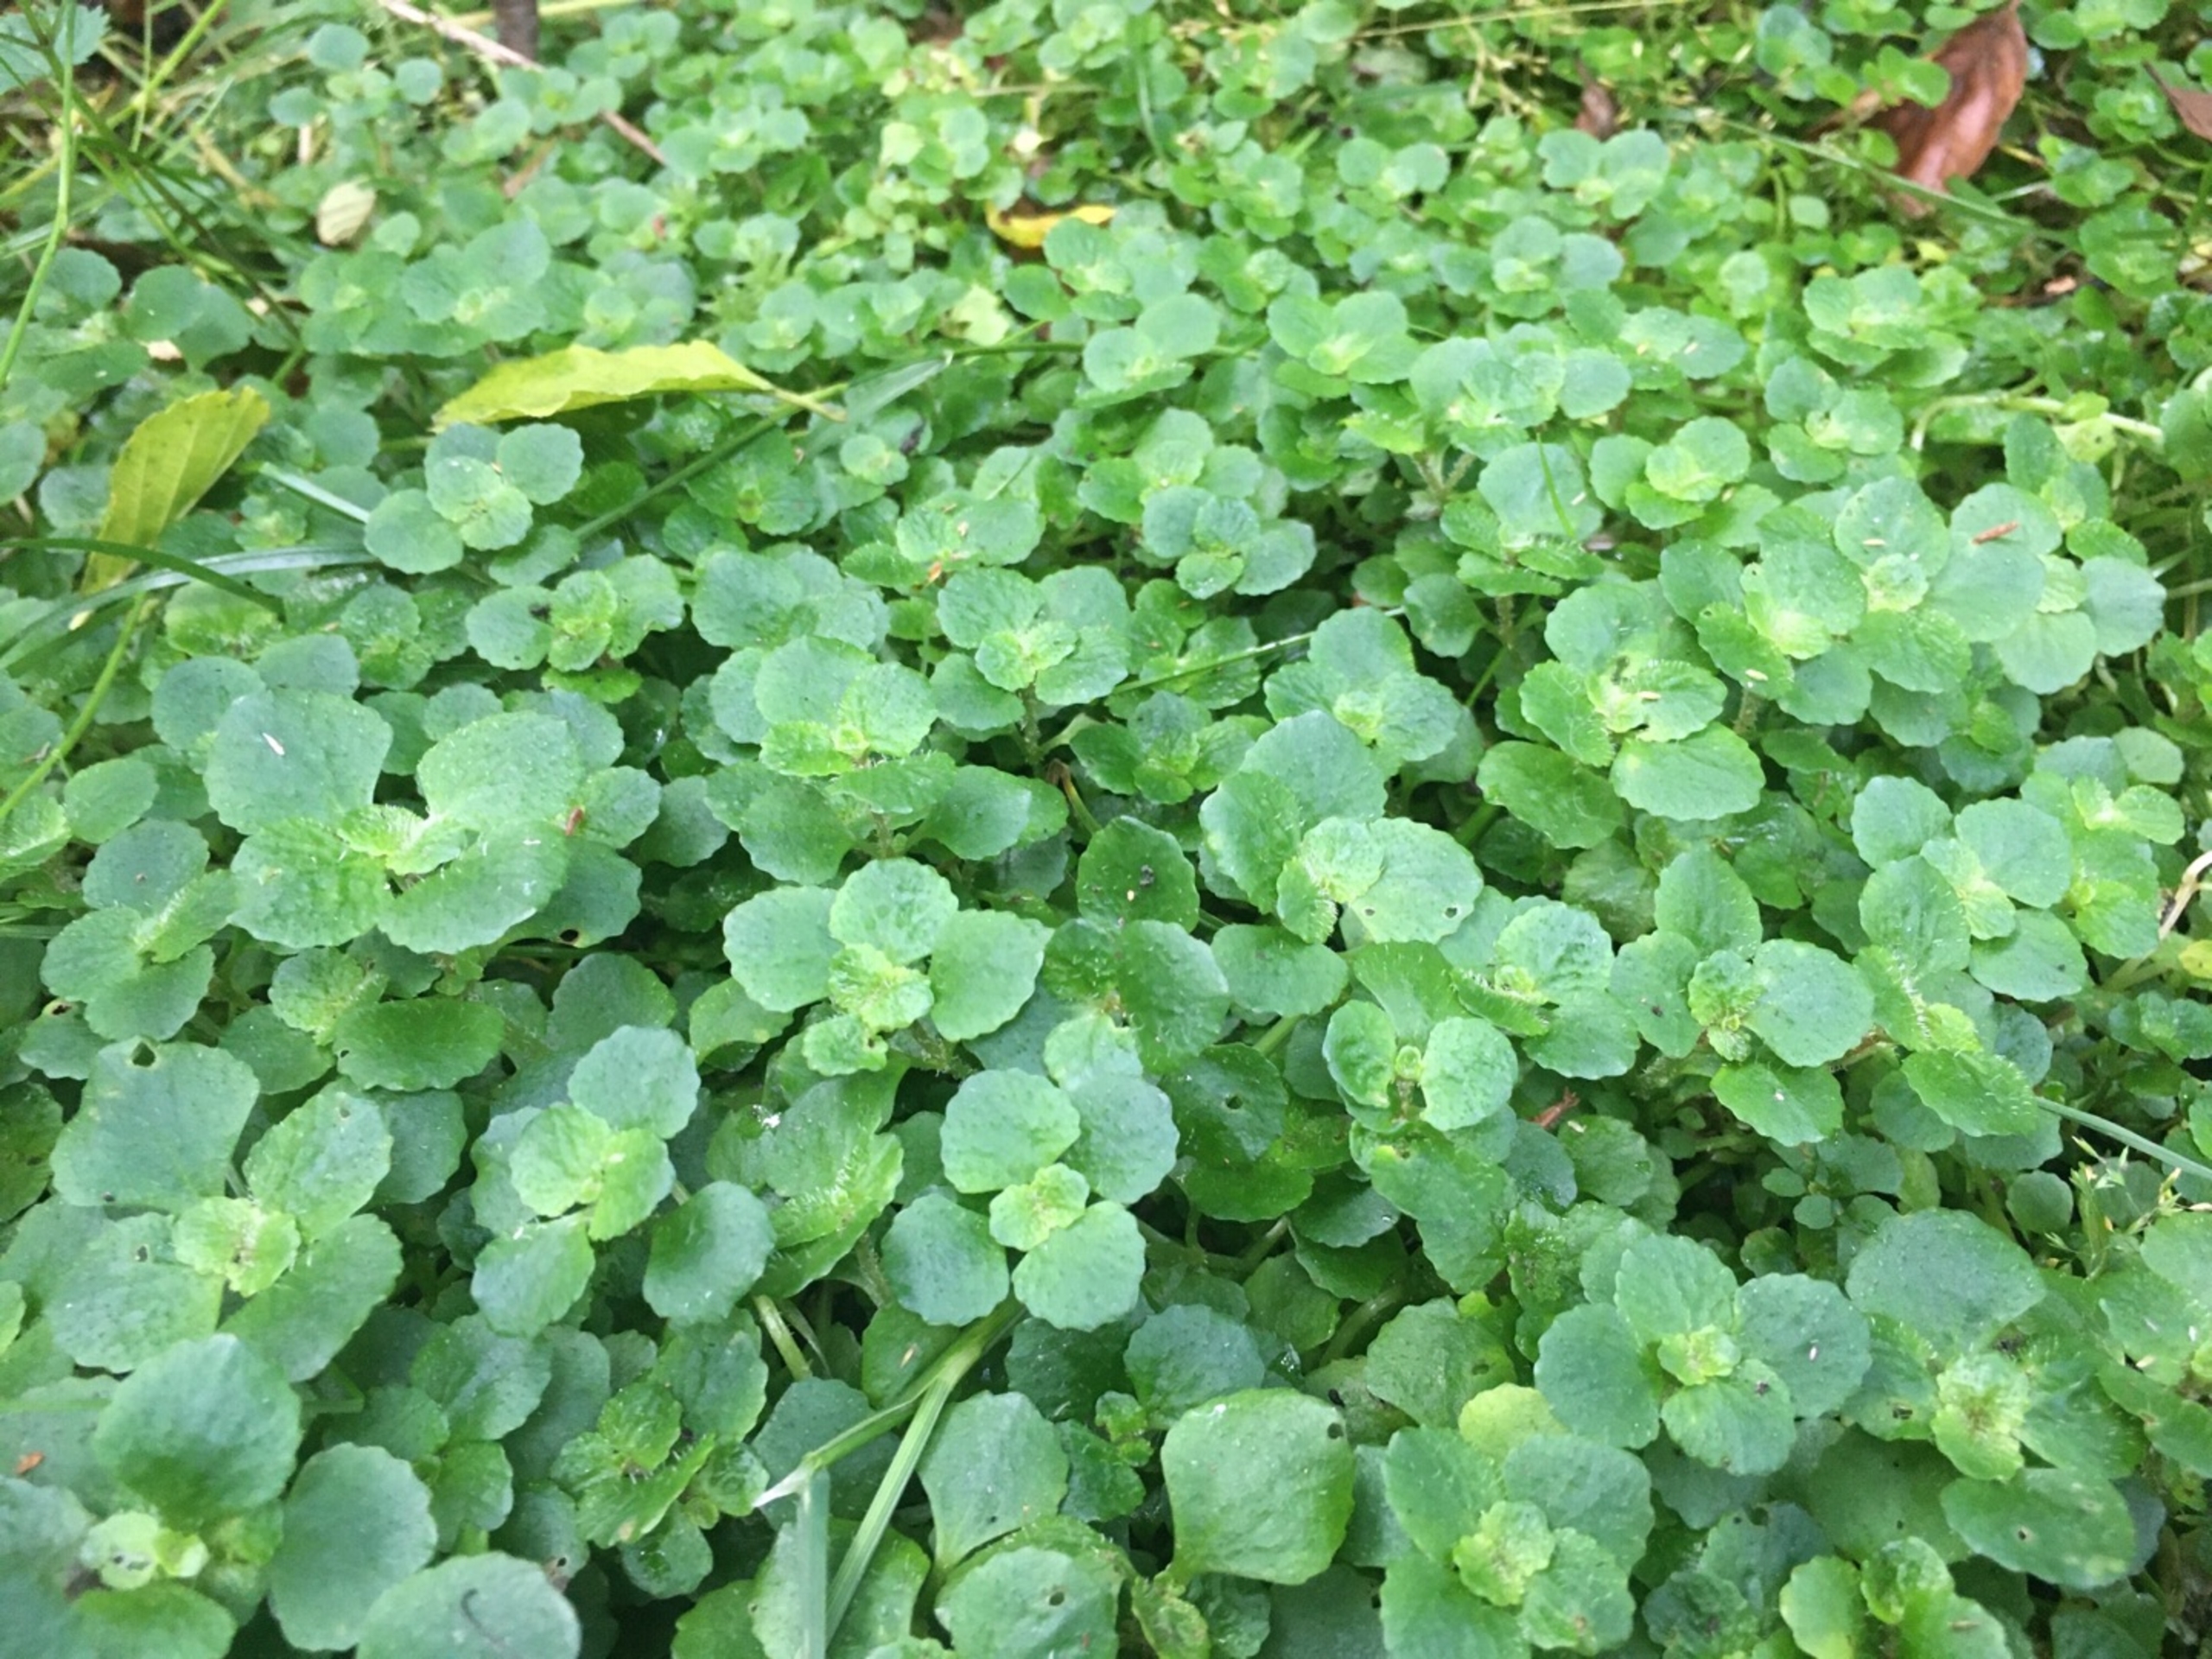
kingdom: Plantae
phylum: Tracheophyta
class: Magnoliopsida
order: Saxifragales
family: Saxifragaceae
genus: Chrysosplenium
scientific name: Chrysosplenium oppositifolium
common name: Småbladet milturt
